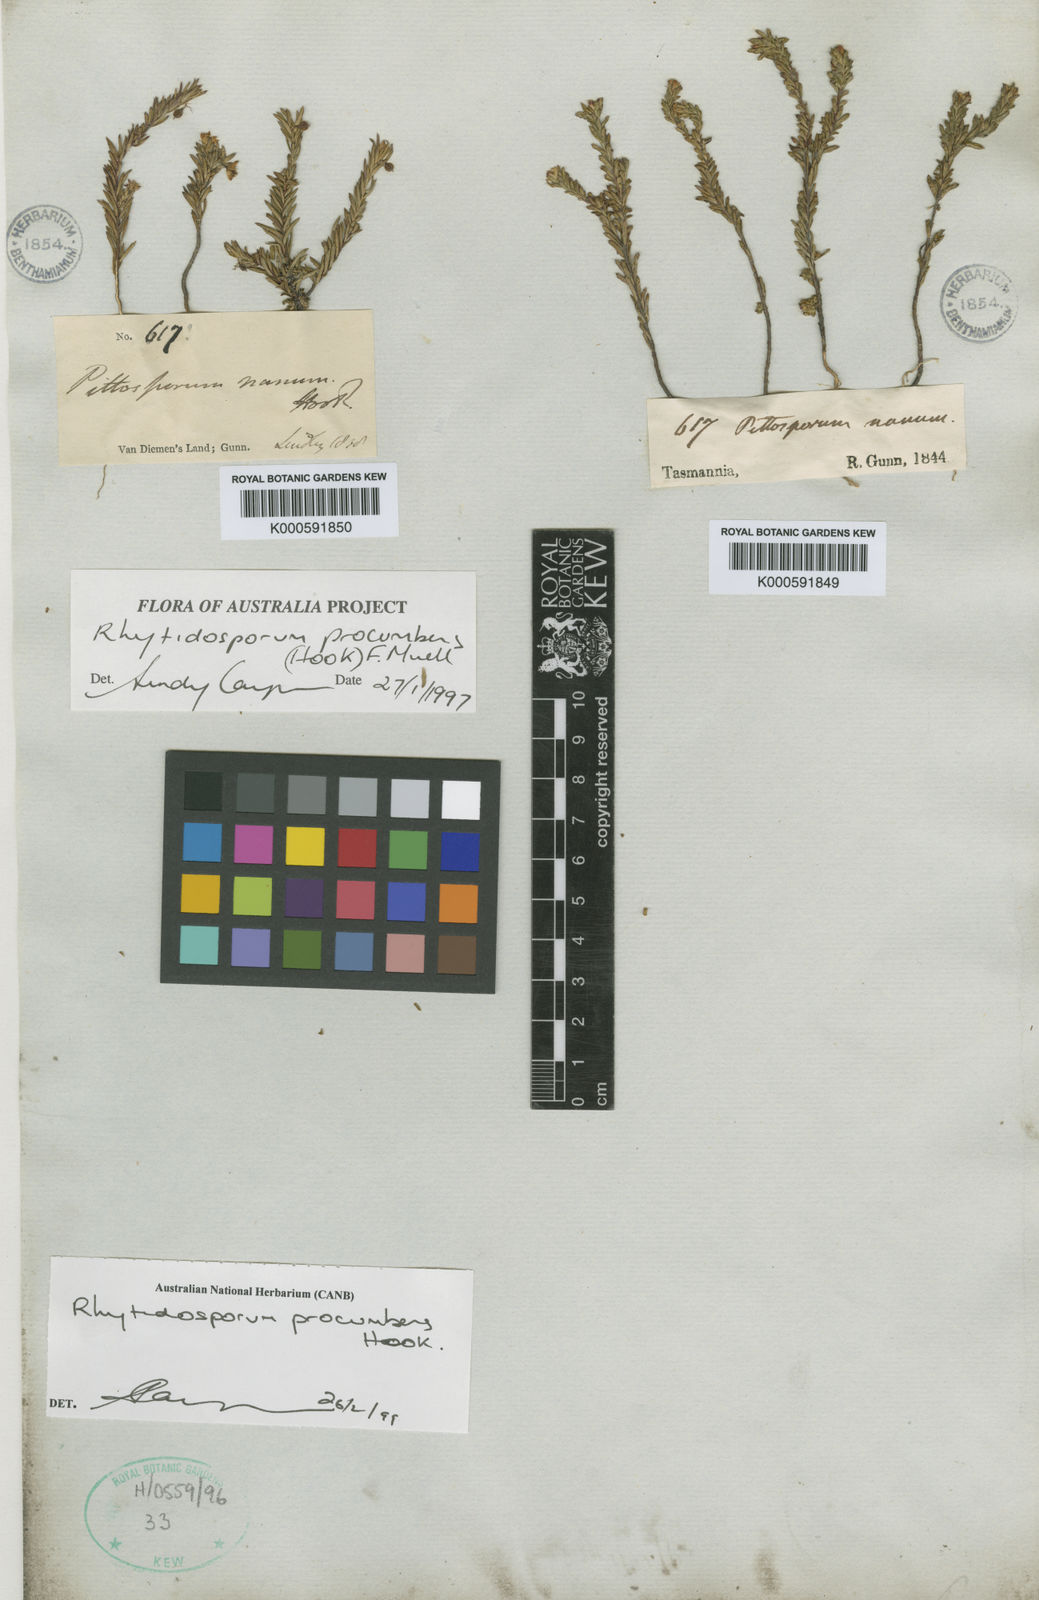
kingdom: Plantae
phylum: Tracheophyta
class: Magnoliopsida
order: Apiales
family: Pittosporaceae
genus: Marianthus
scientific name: Marianthus
